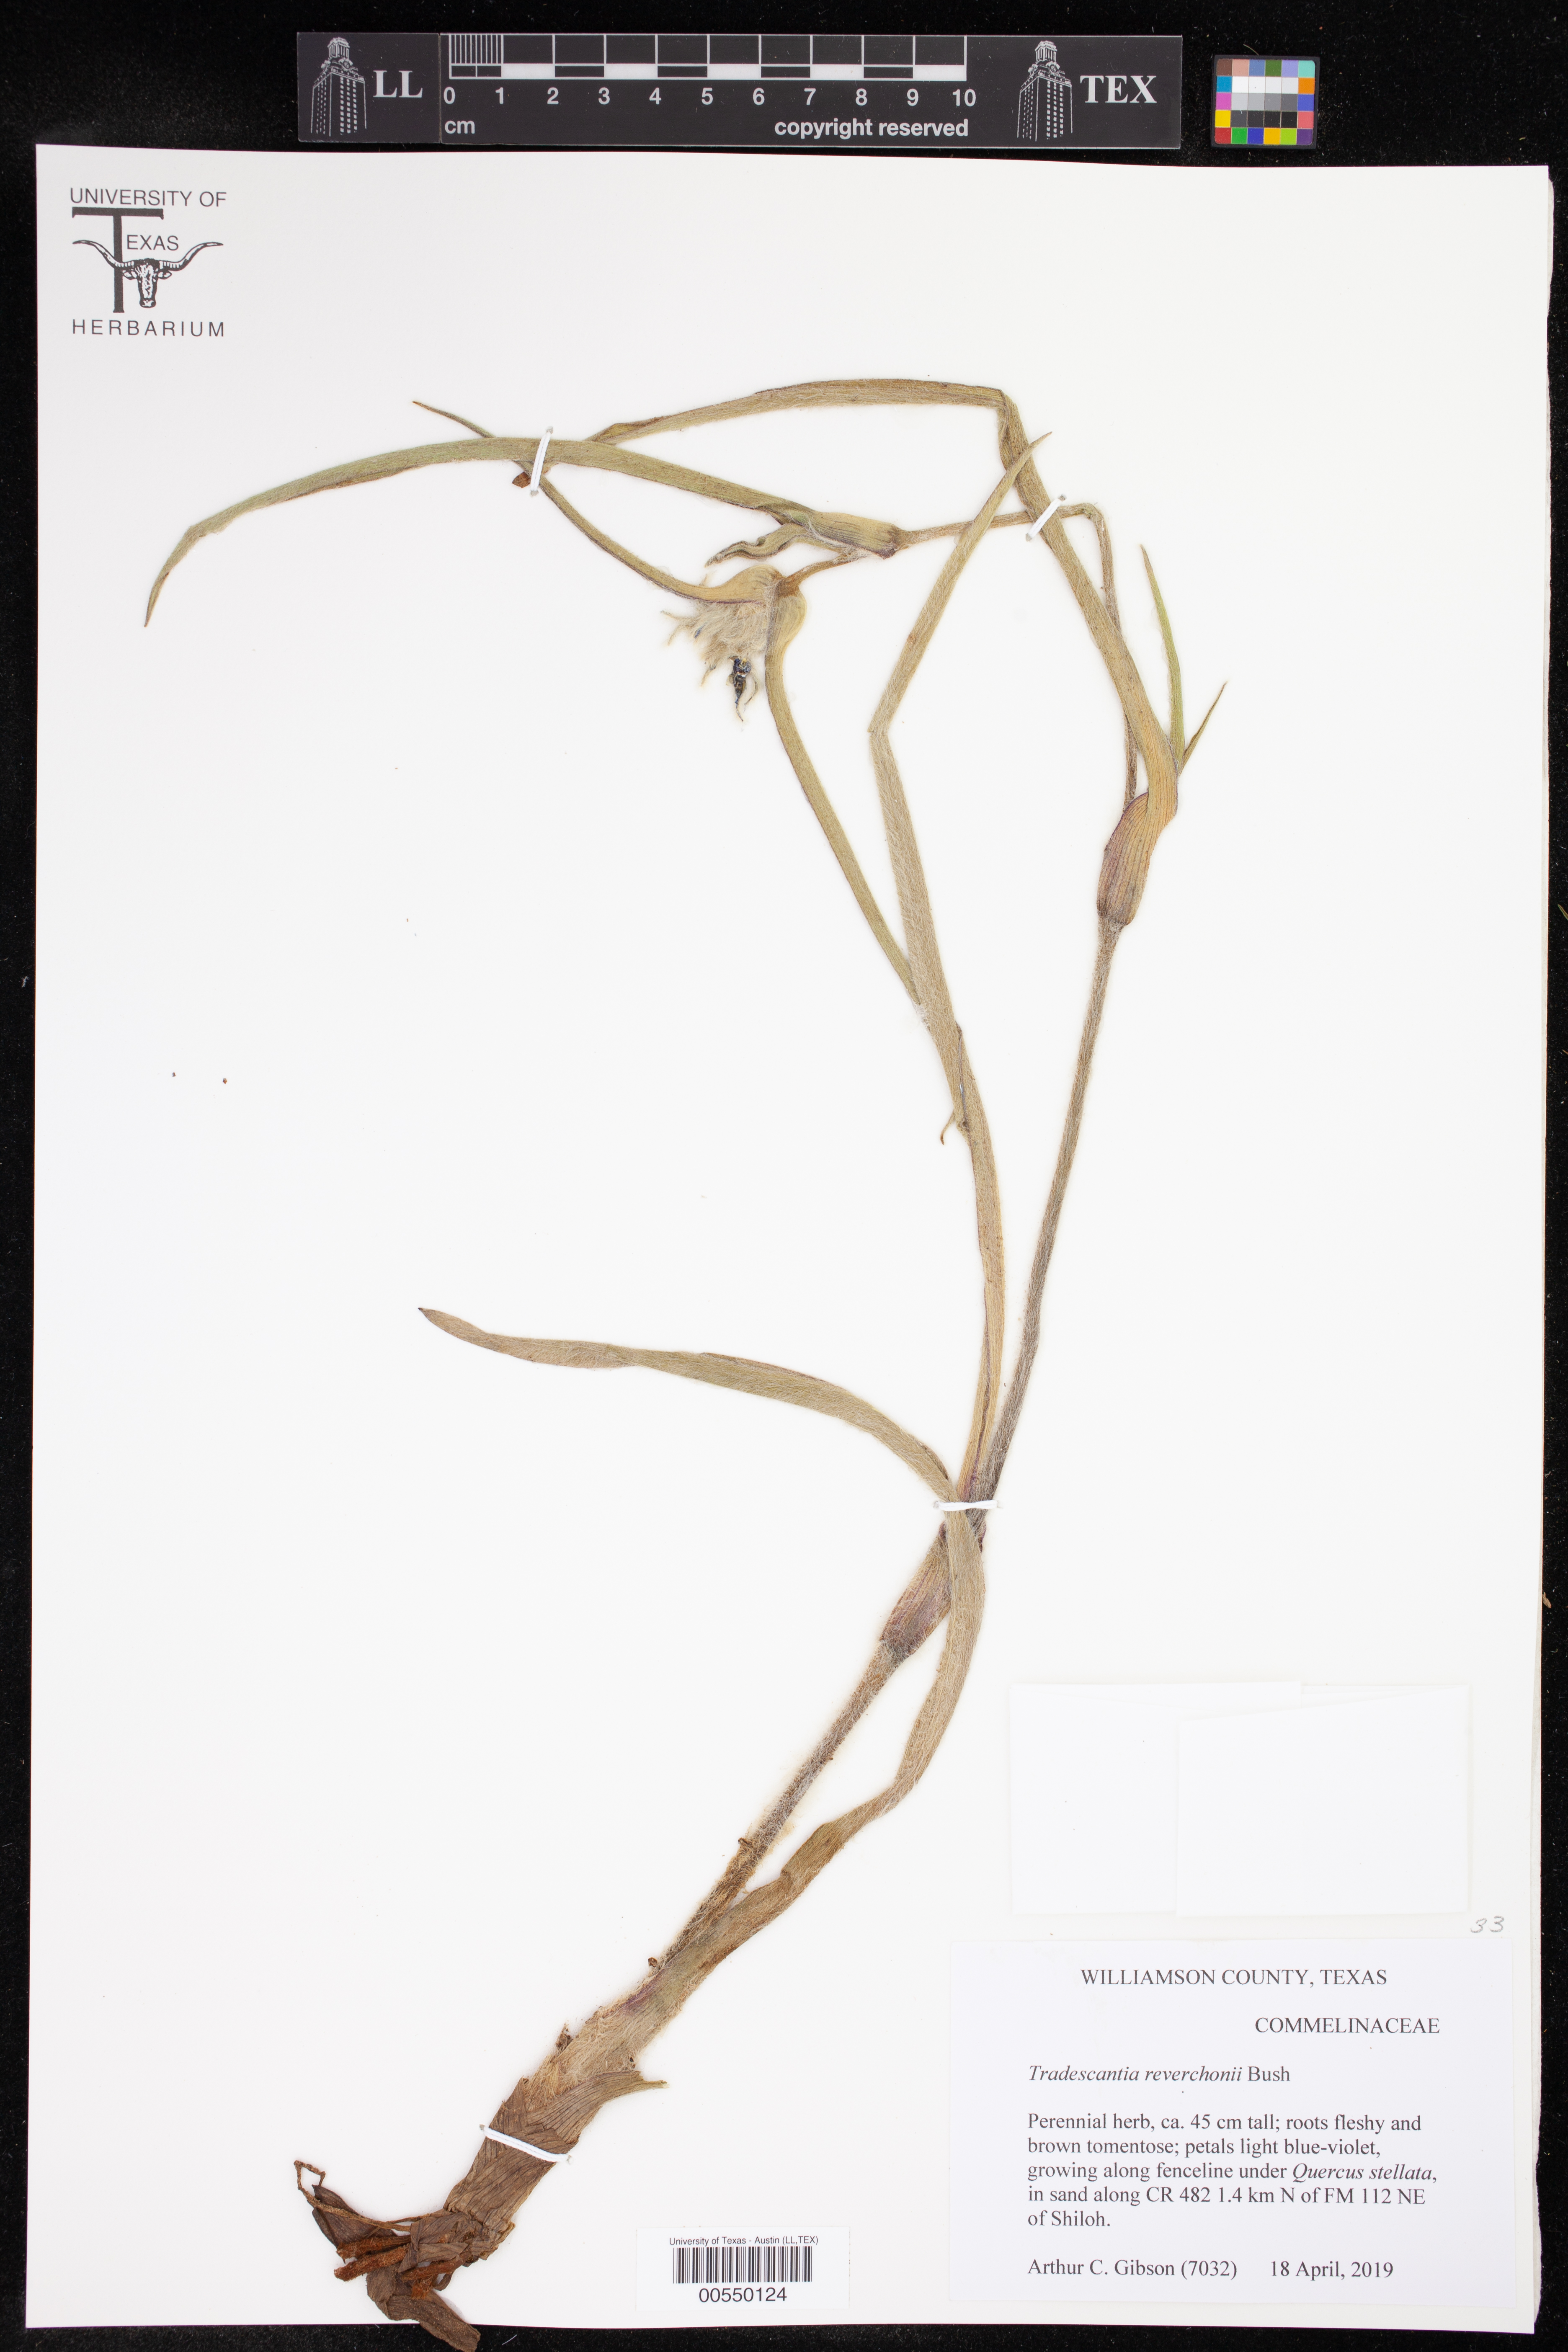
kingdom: Plantae
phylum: Tracheophyta
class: Liliopsida
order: Commelinales
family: Commelinaceae
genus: Tradescantia
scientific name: Tradescantia reverchonii
